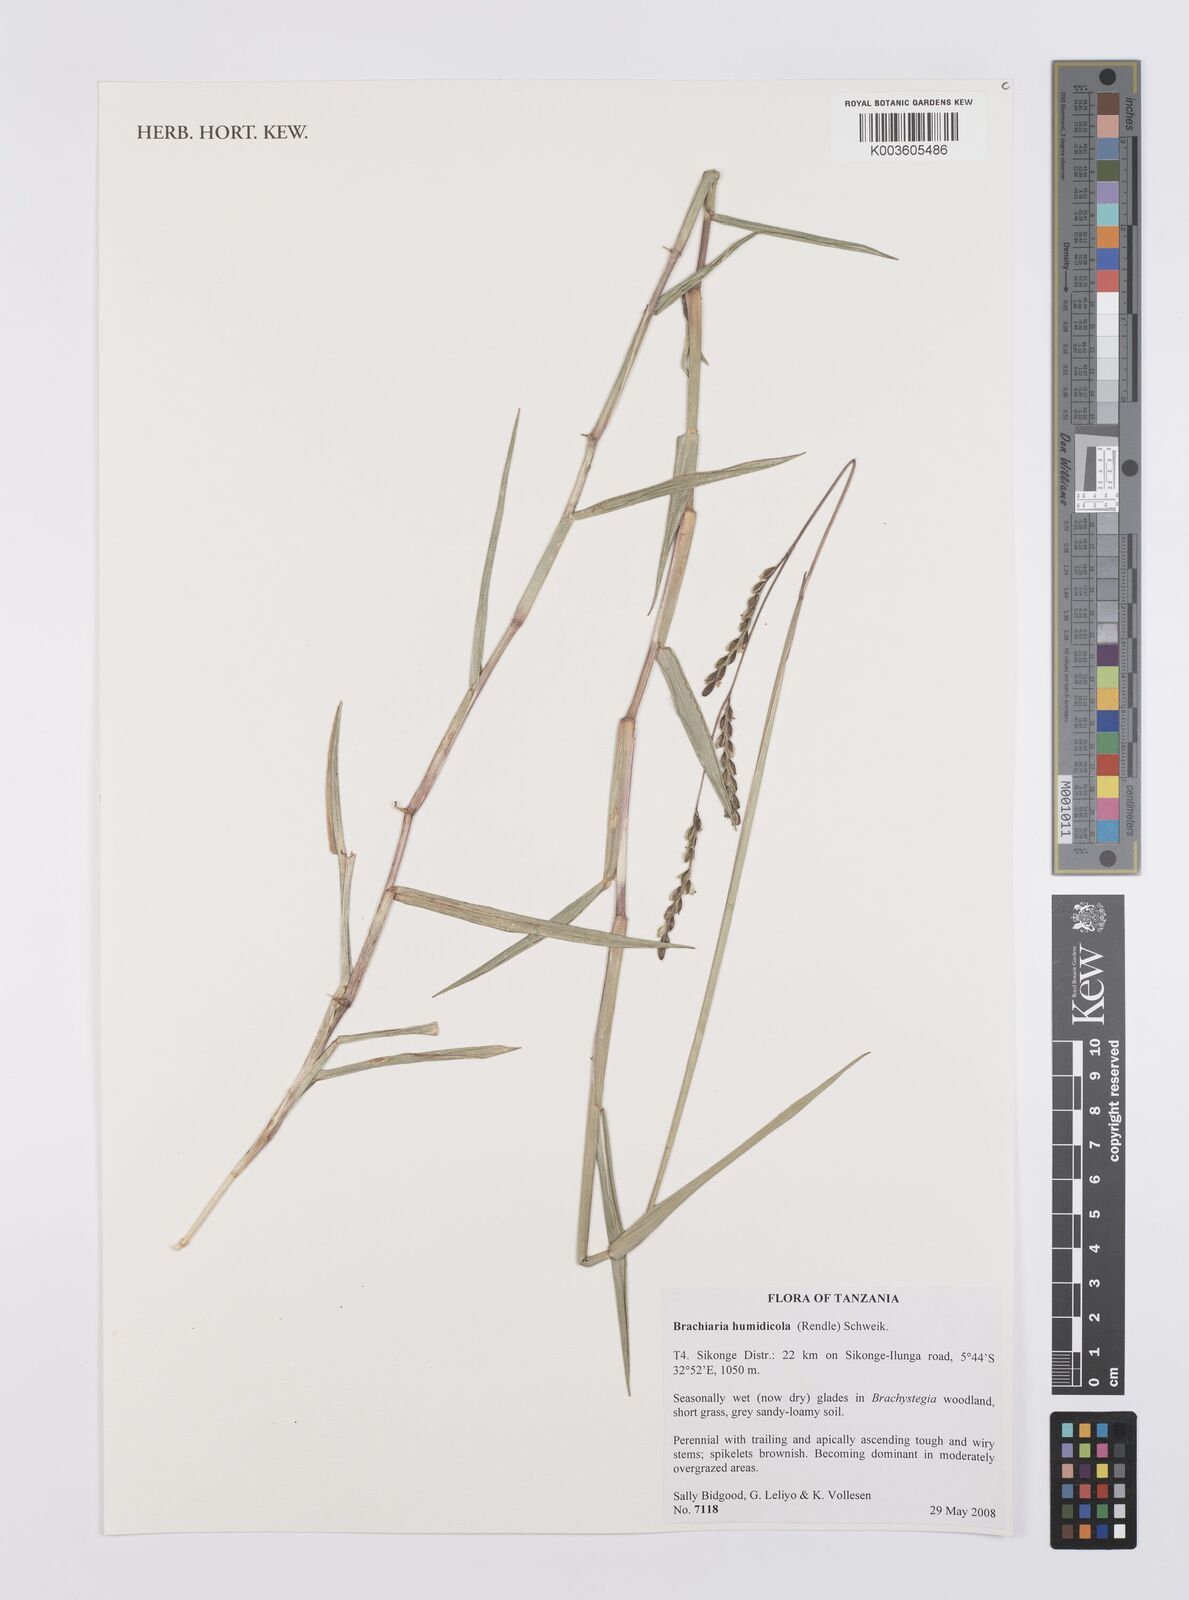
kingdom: Plantae
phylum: Tracheophyta
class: Liliopsida
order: Poales
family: Poaceae
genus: Urochloa
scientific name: Urochloa dictyoneura
